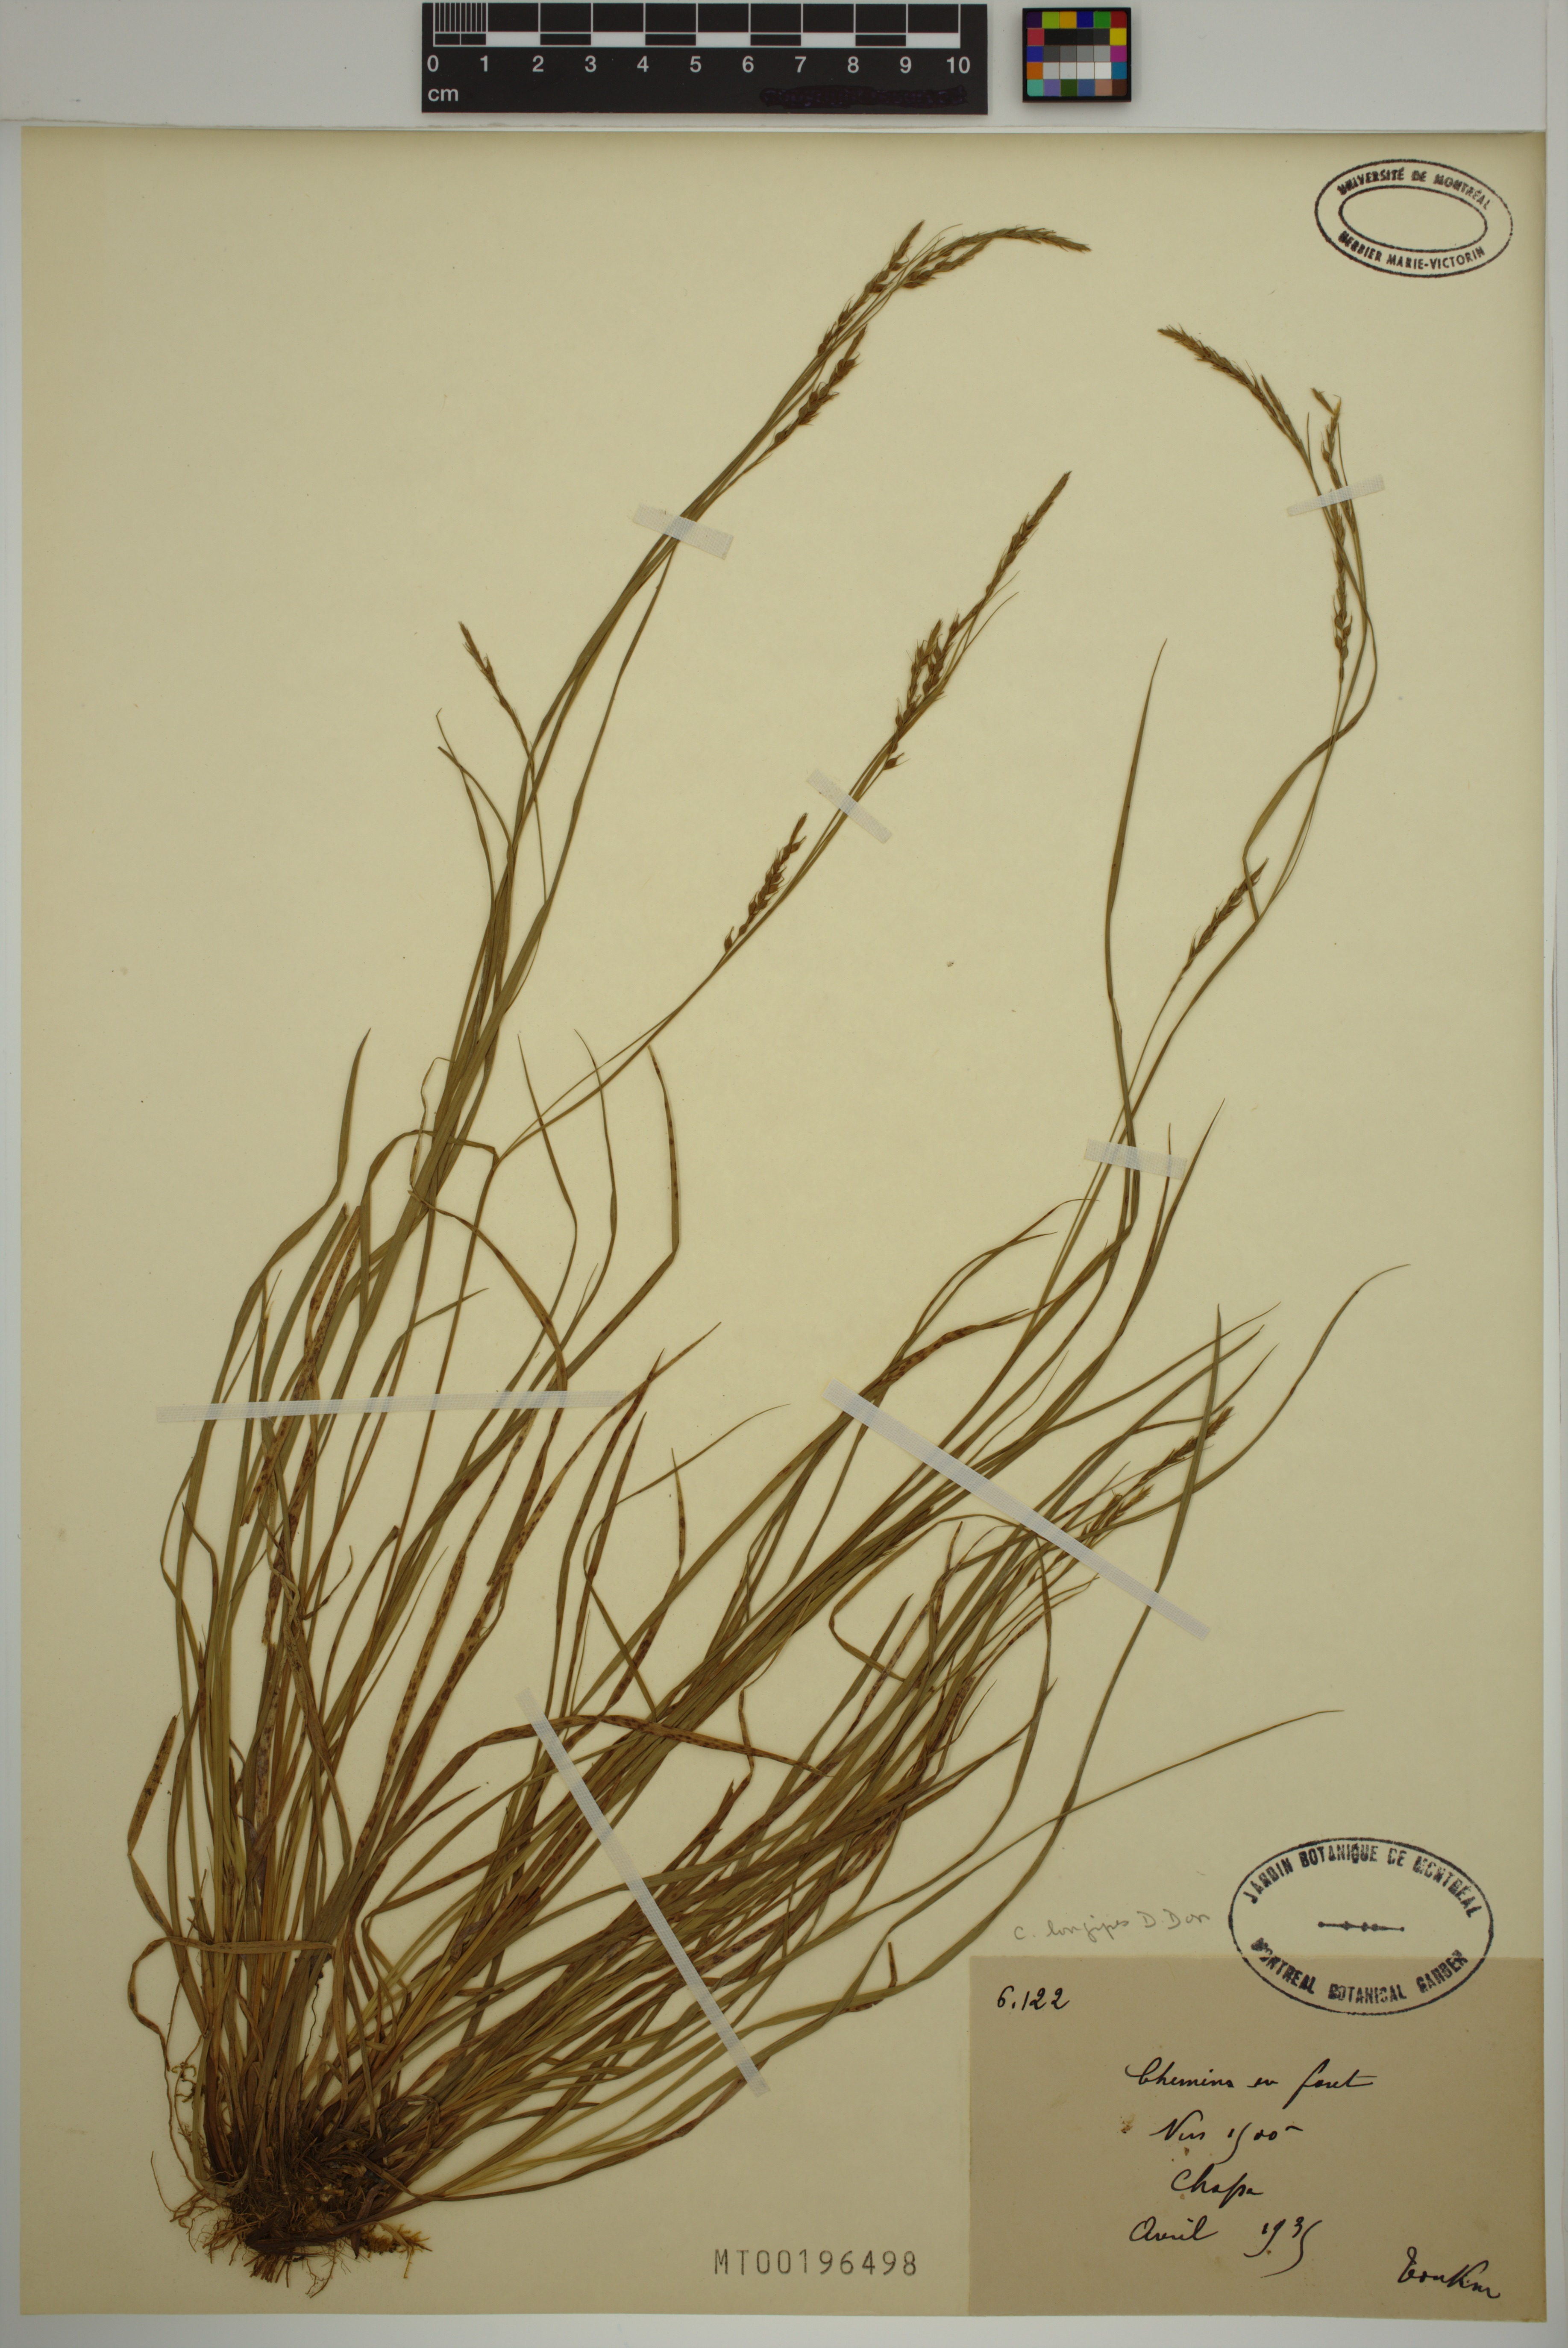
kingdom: Plantae
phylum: Tracheophyta
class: Liliopsida
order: Poales
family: Cyperaceae
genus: Carex
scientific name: Carex longipes
